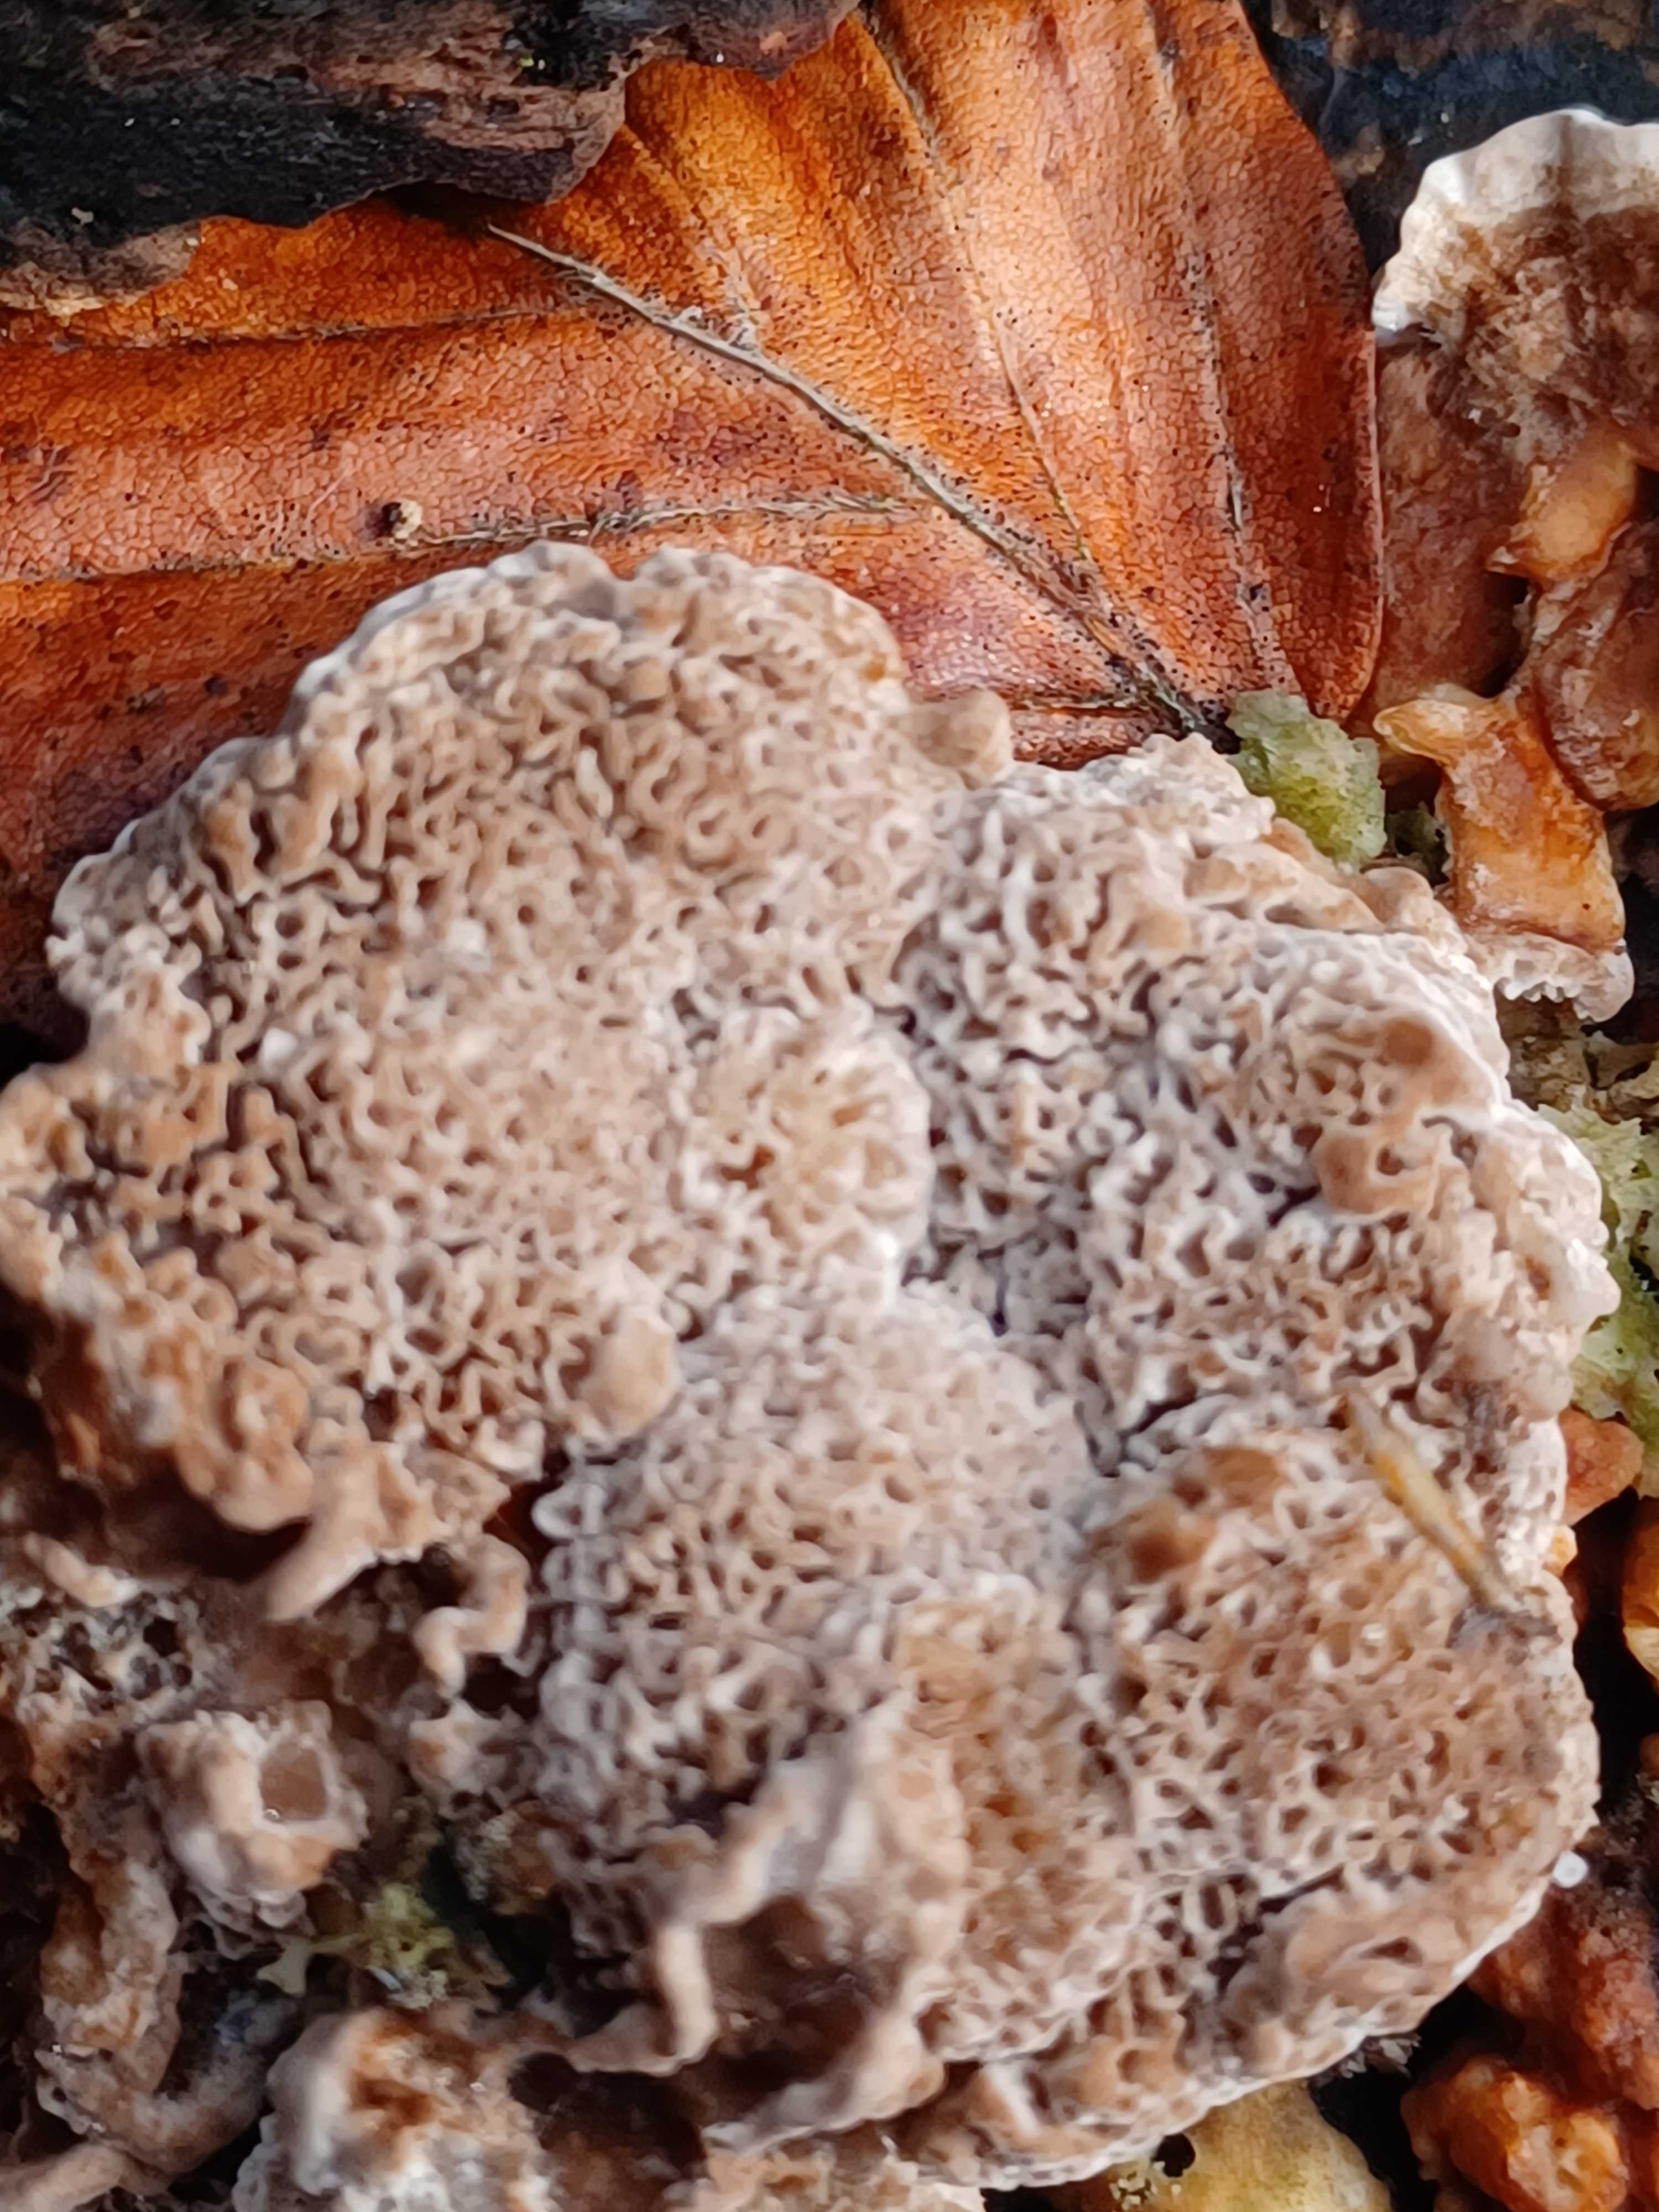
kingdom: Fungi
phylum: Basidiomycota
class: Agaricomycetes
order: Polyporales
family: Polyporaceae
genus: Trametes
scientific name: Trametes
